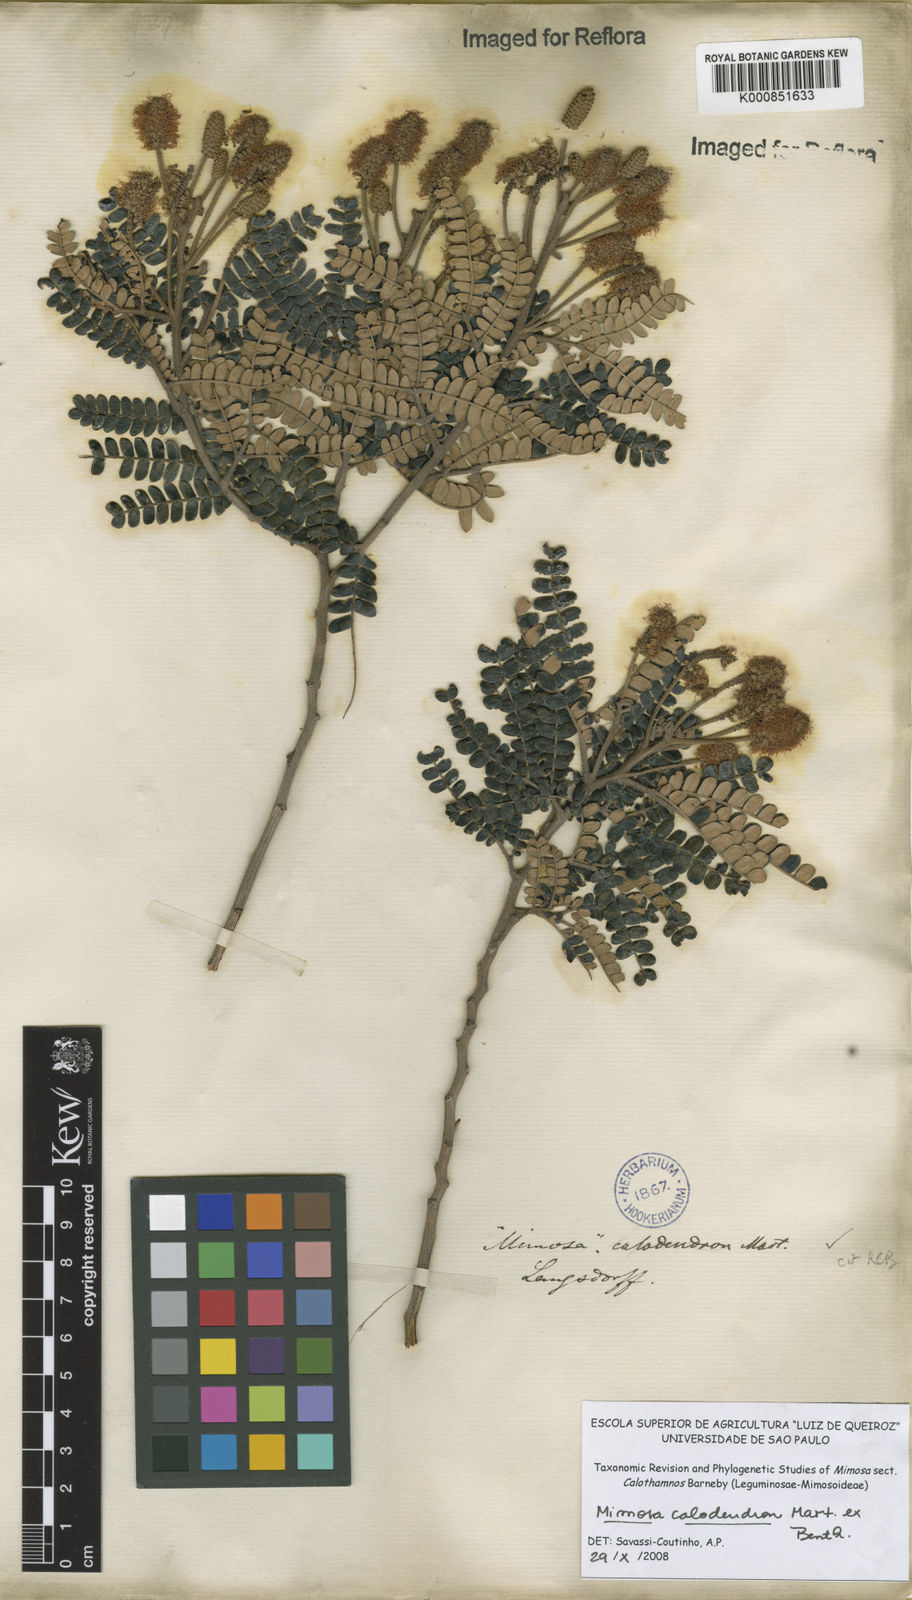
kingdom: Plantae
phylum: Tracheophyta
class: Magnoliopsida
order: Fabales
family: Fabaceae
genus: Mimosa
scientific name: Mimosa calodendron
